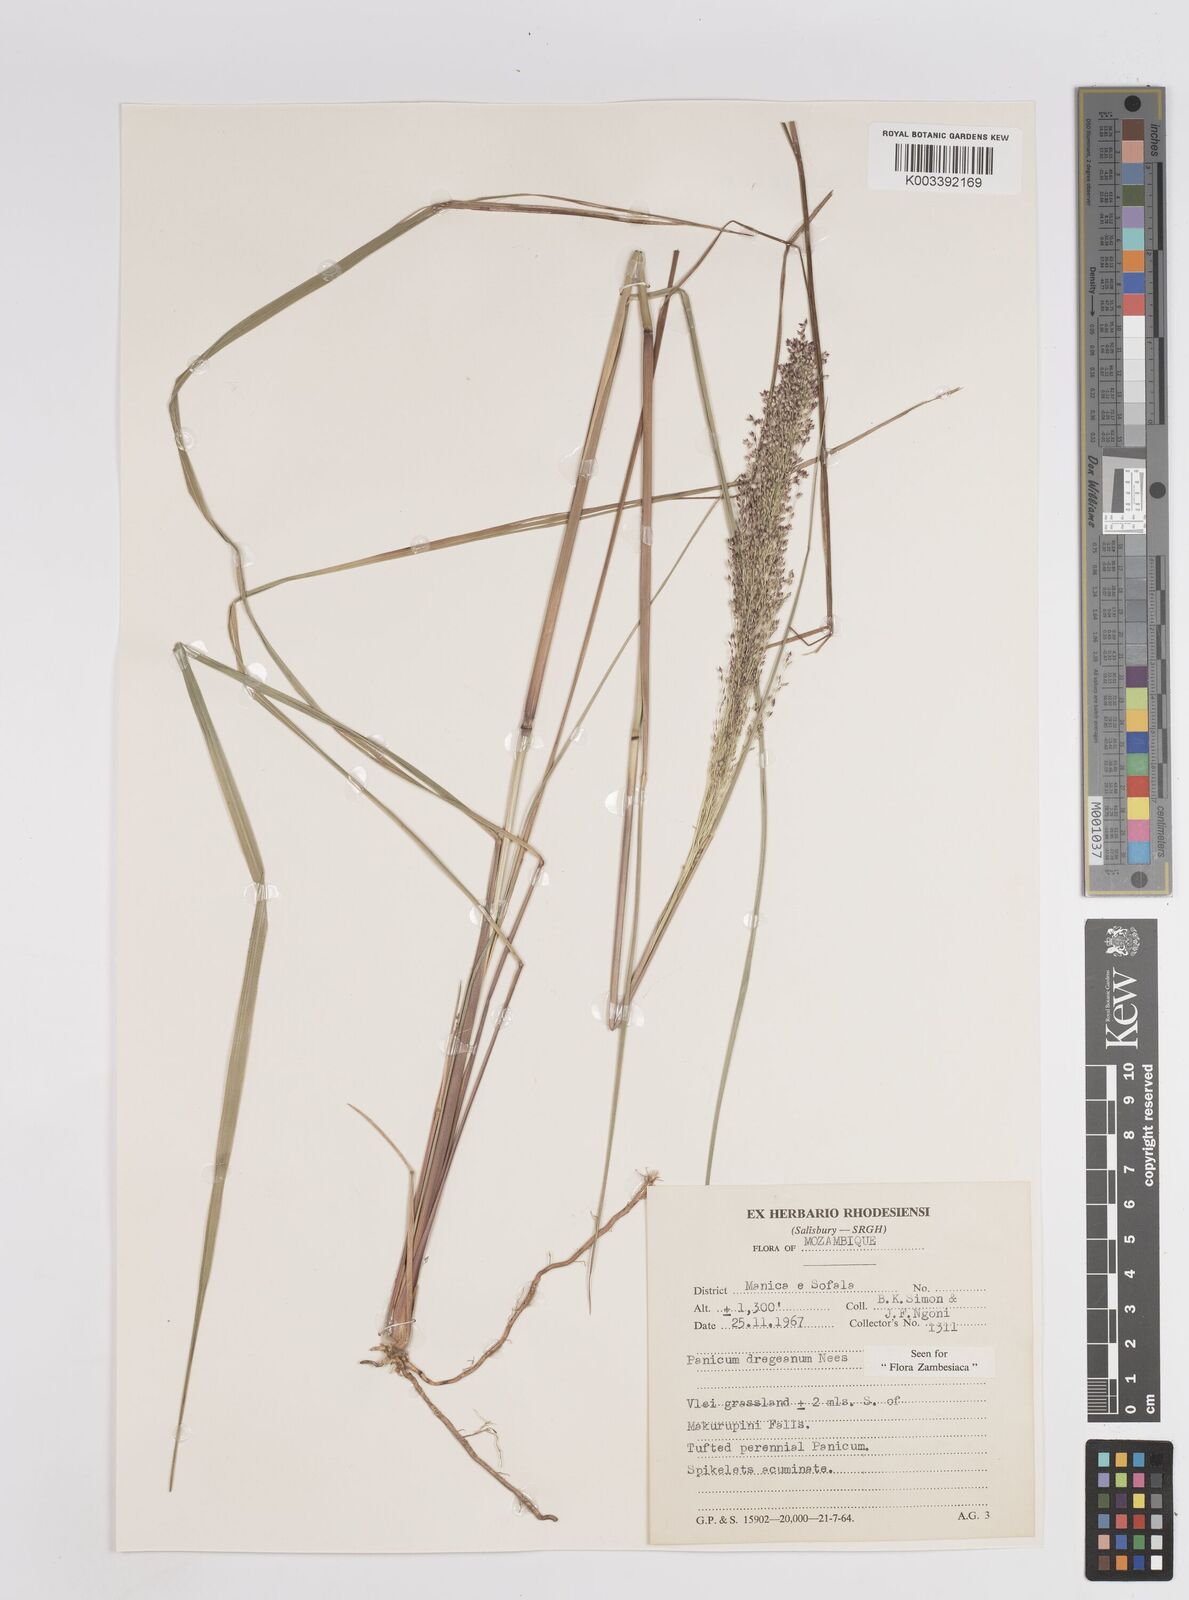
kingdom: Plantae
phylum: Tracheophyta
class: Liliopsida
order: Poales
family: Poaceae
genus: Panicum
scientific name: Panicum dregeanum
